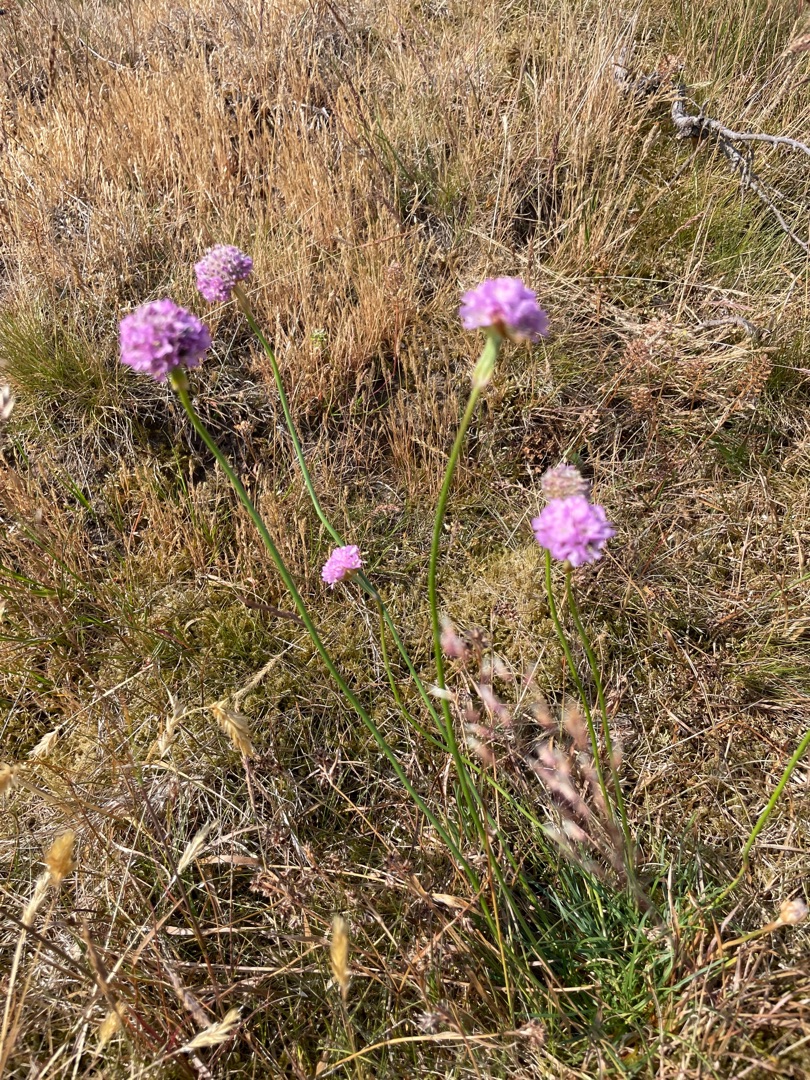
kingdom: Plantae
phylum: Tracheophyta
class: Magnoliopsida
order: Caryophyllales
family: Plumbaginaceae
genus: Armeria
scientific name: Armeria maritima
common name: Engelskgræs
